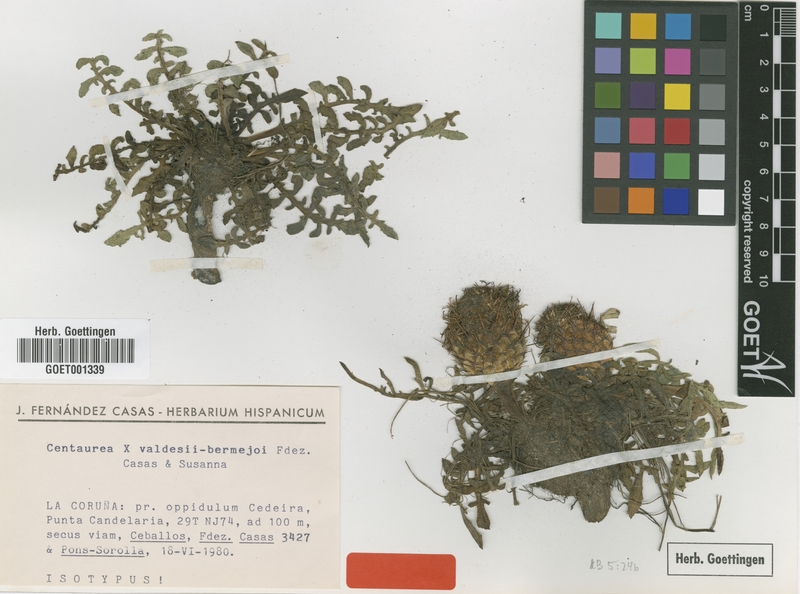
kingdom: Plantae
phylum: Tracheophyta
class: Magnoliopsida
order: Asterales
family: Asteraceae
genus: Centaurea
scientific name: Centaurea ceballosii
